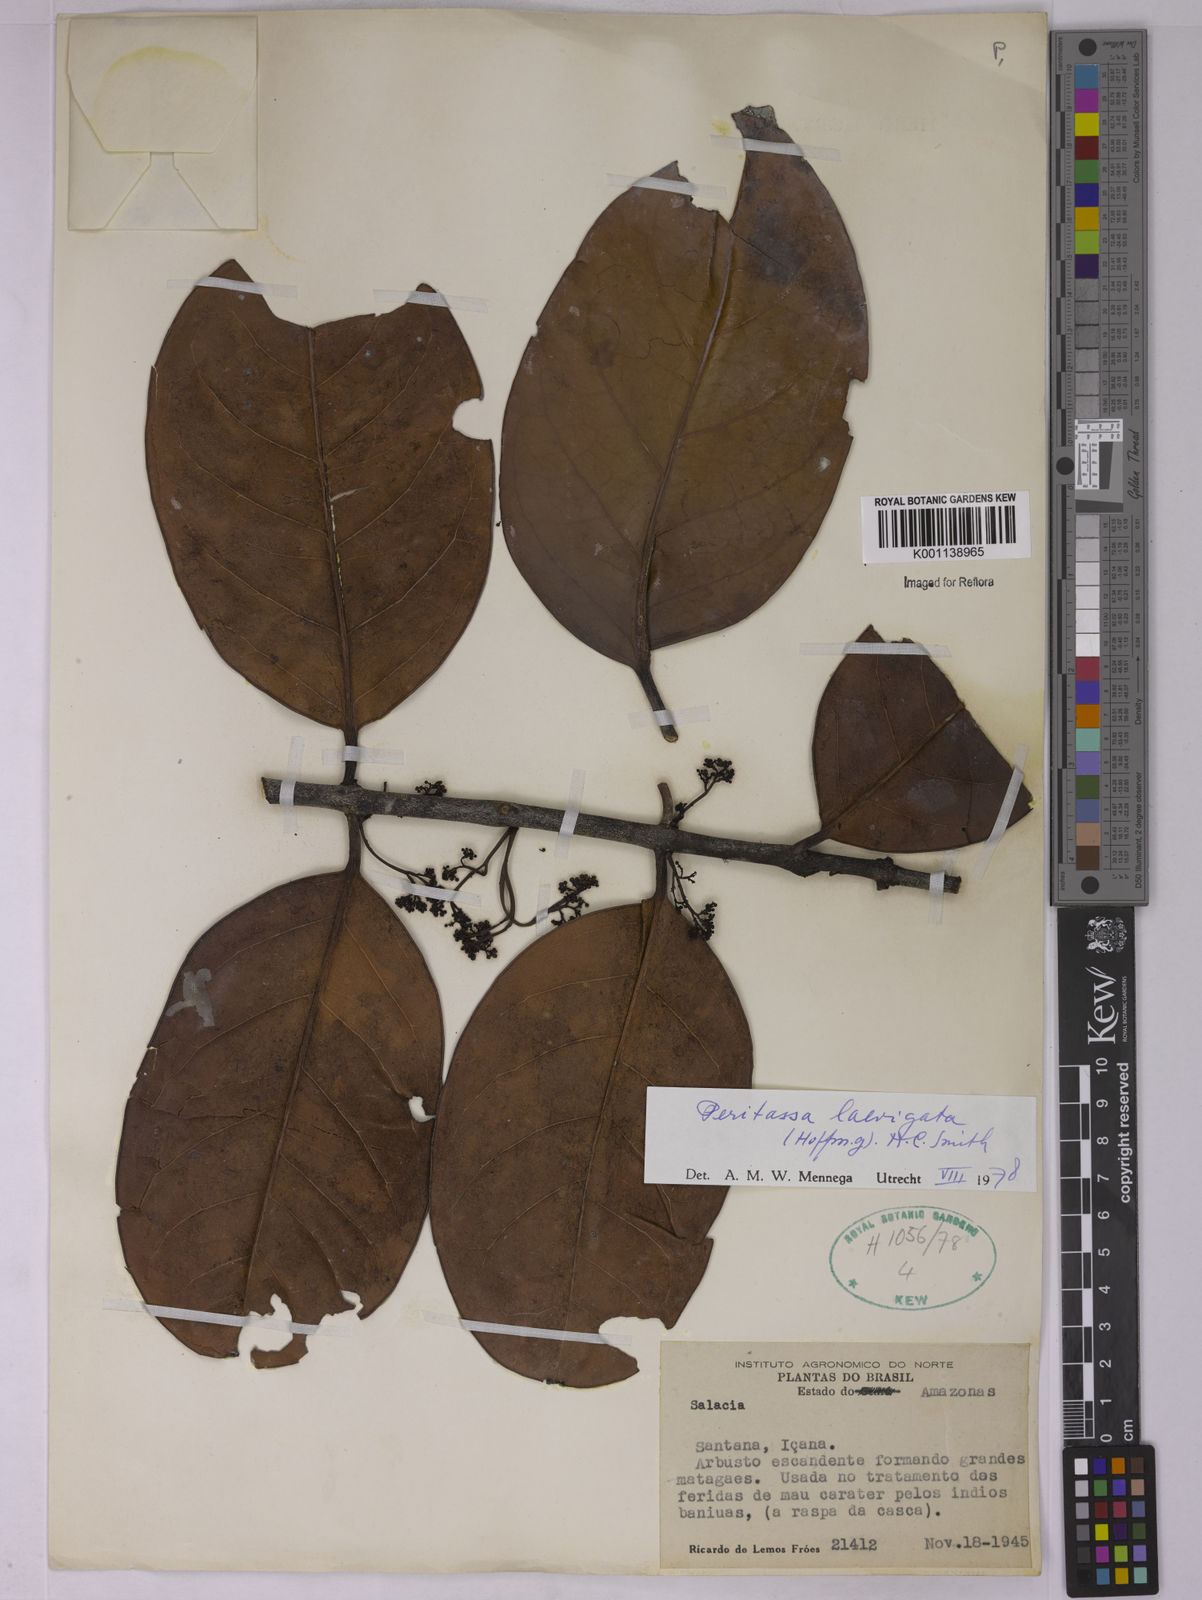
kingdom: Plantae
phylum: Tracheophyta
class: Magnoliopsida
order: Celastrales
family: Celastraceae
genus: Peritassa
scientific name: Peritassa laevigata
